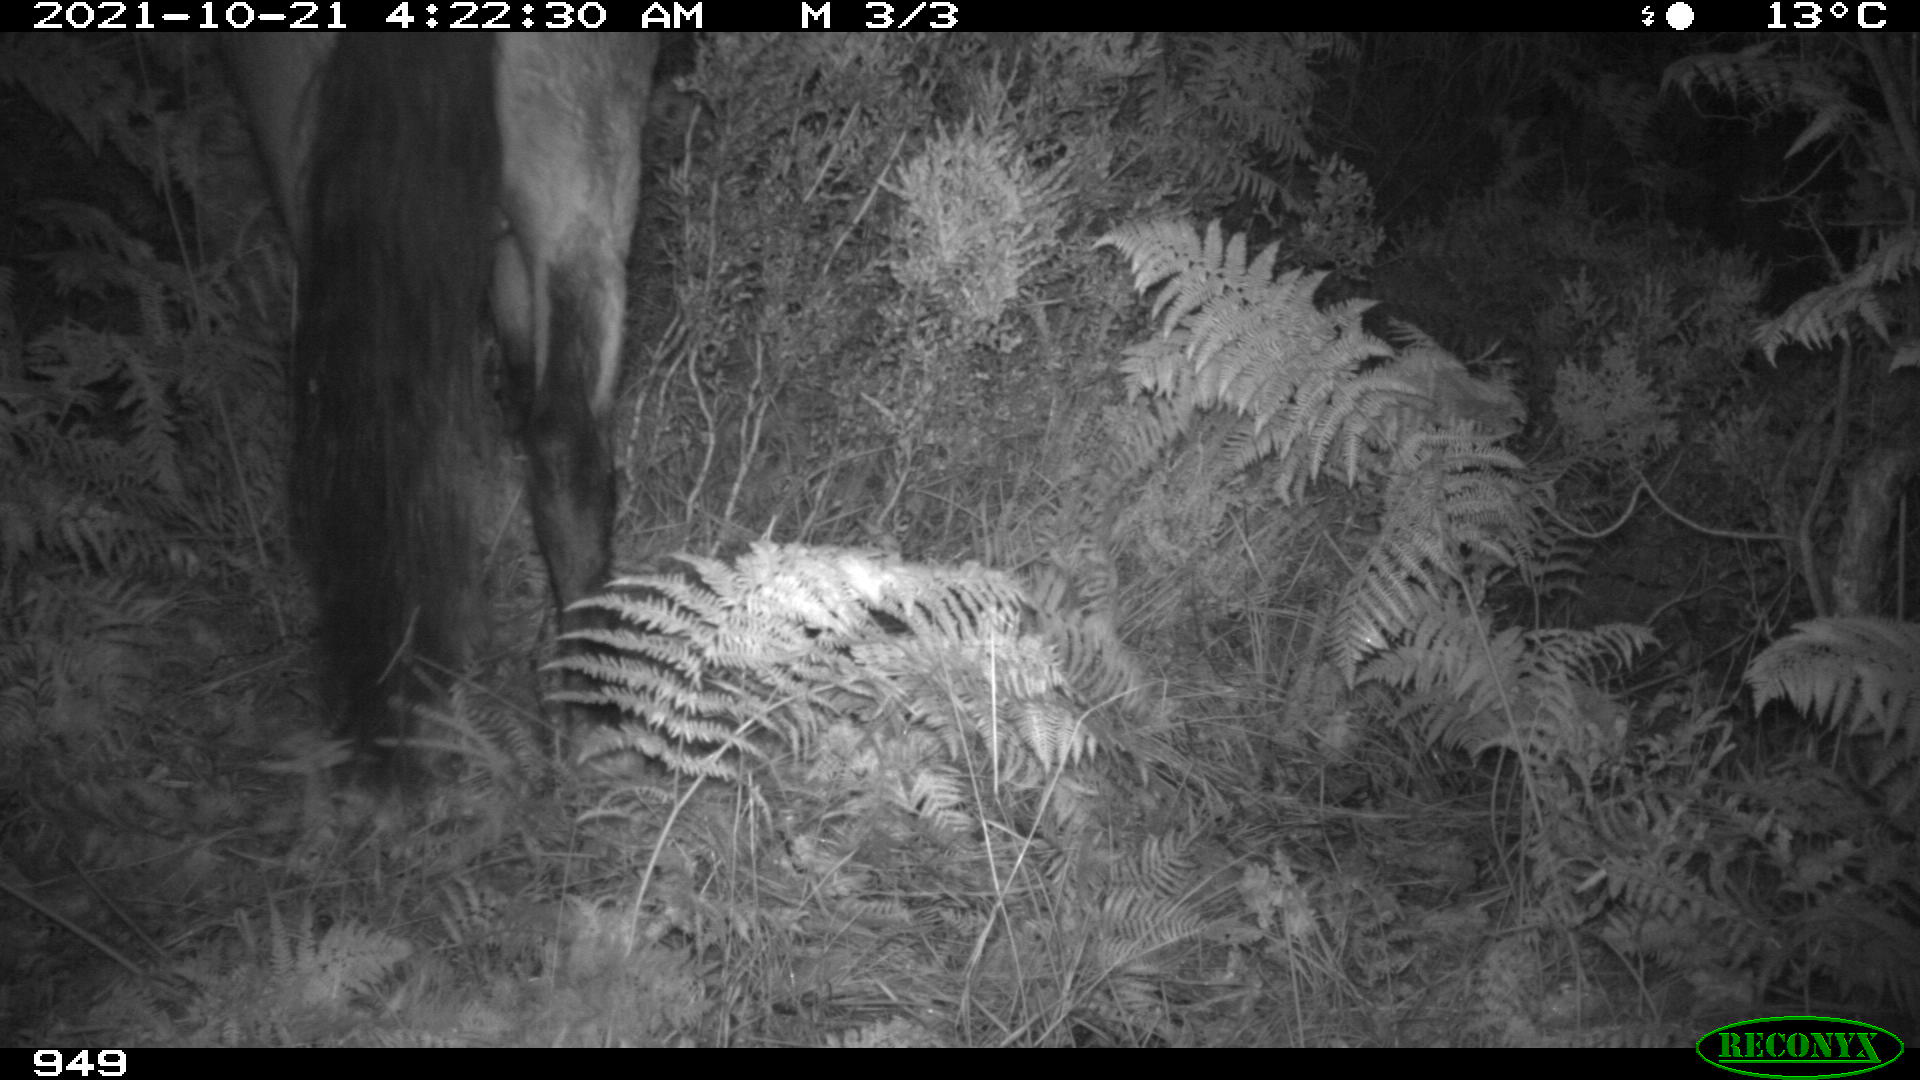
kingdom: Animalia
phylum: Chordata
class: Mammalia
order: Perissodactyla
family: Equidae
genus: Equus
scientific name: Equus caballus
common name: Horse
